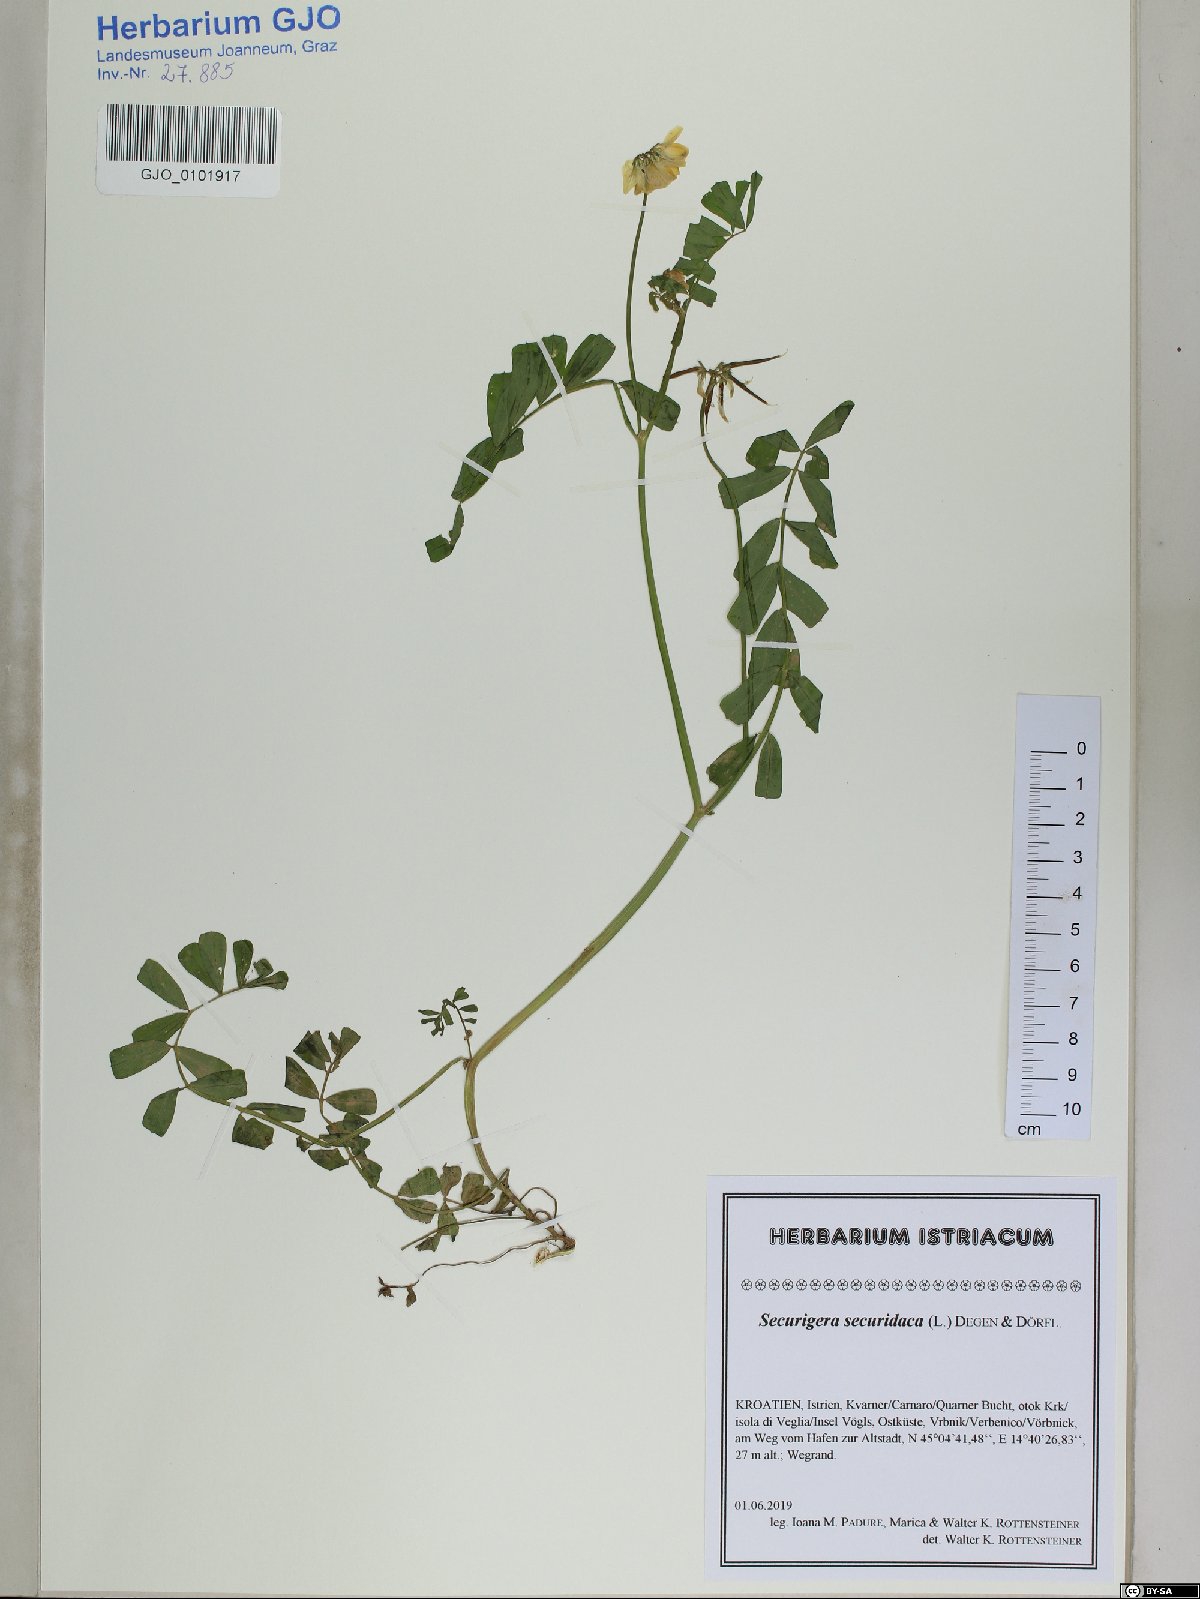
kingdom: Plantae
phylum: Tracheophyta
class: Magnoliopsida
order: Fabales
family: Fabaceae
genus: Coronilla
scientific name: Coronilla securidaca
